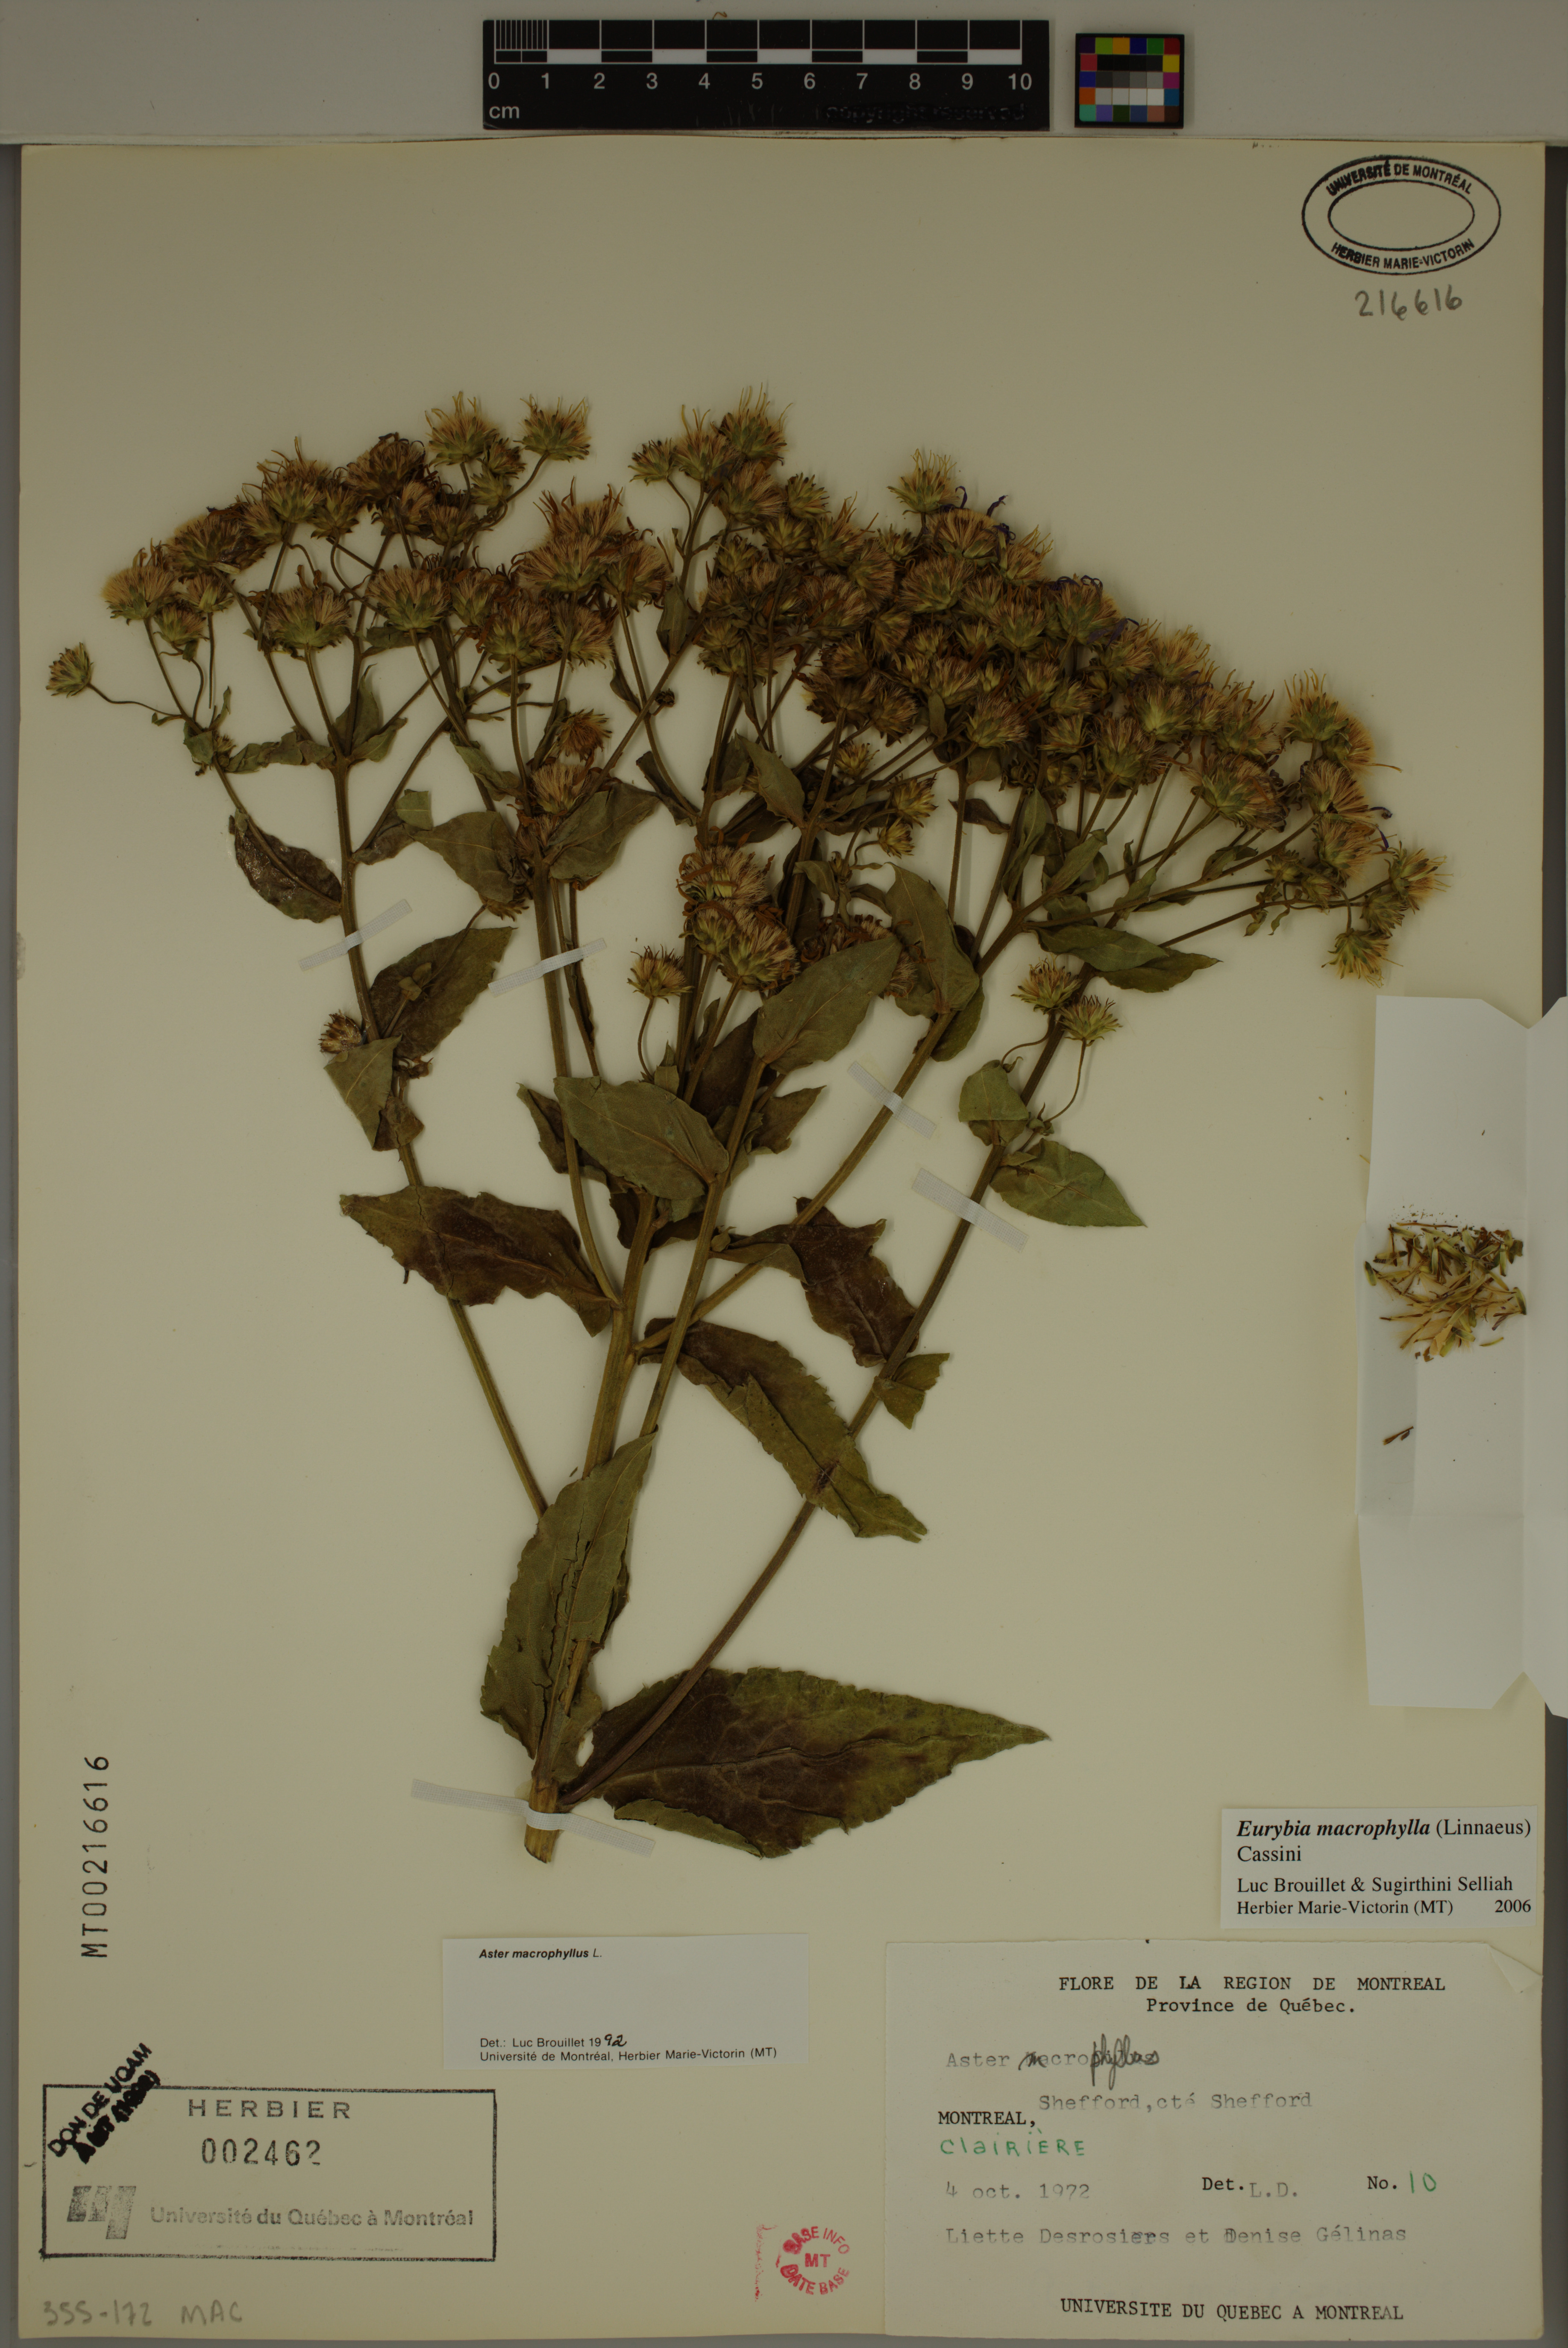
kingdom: Plantae
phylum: Tracheophyta
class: Magnoliopsida
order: Asterales
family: Asteraceae
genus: Eurybia
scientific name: Eurybia macrophylla
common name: Big-leaved aster
